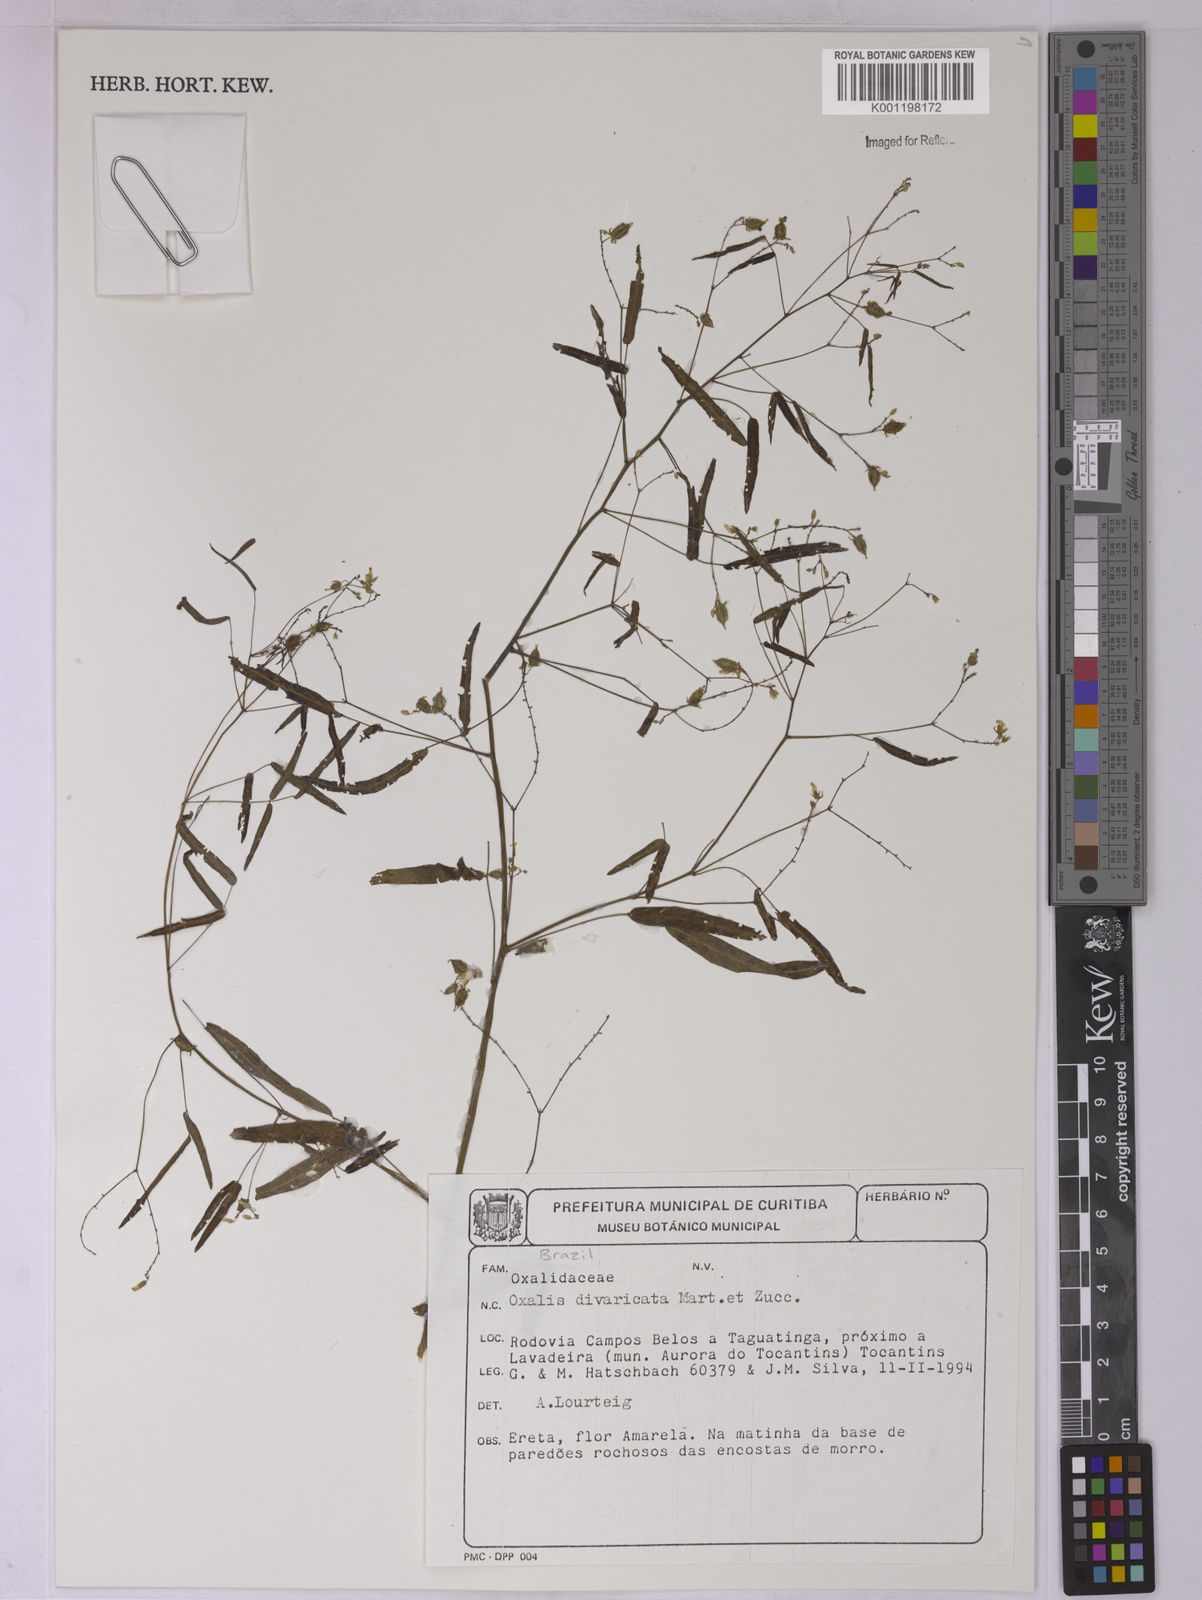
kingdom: Plantae
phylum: Tracheophyta
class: Magnoliopsida
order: Oxalidales
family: Oxalidaceae
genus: Oxalis
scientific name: Oxalis divaricata
